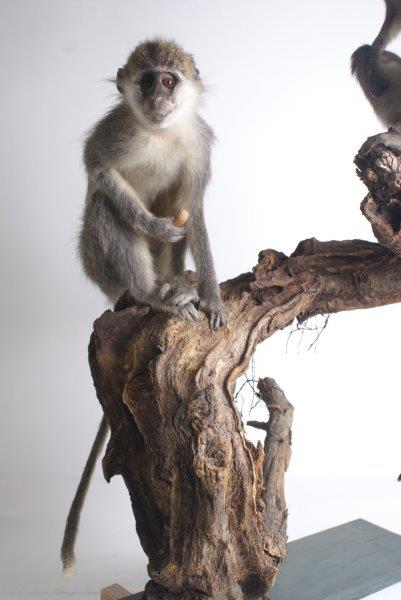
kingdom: Animalia
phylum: Chordata
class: Mammalia
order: Primates
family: Cercopithecidae
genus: Chlorocebus
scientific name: Chlorocebus aethiops
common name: Grivet
